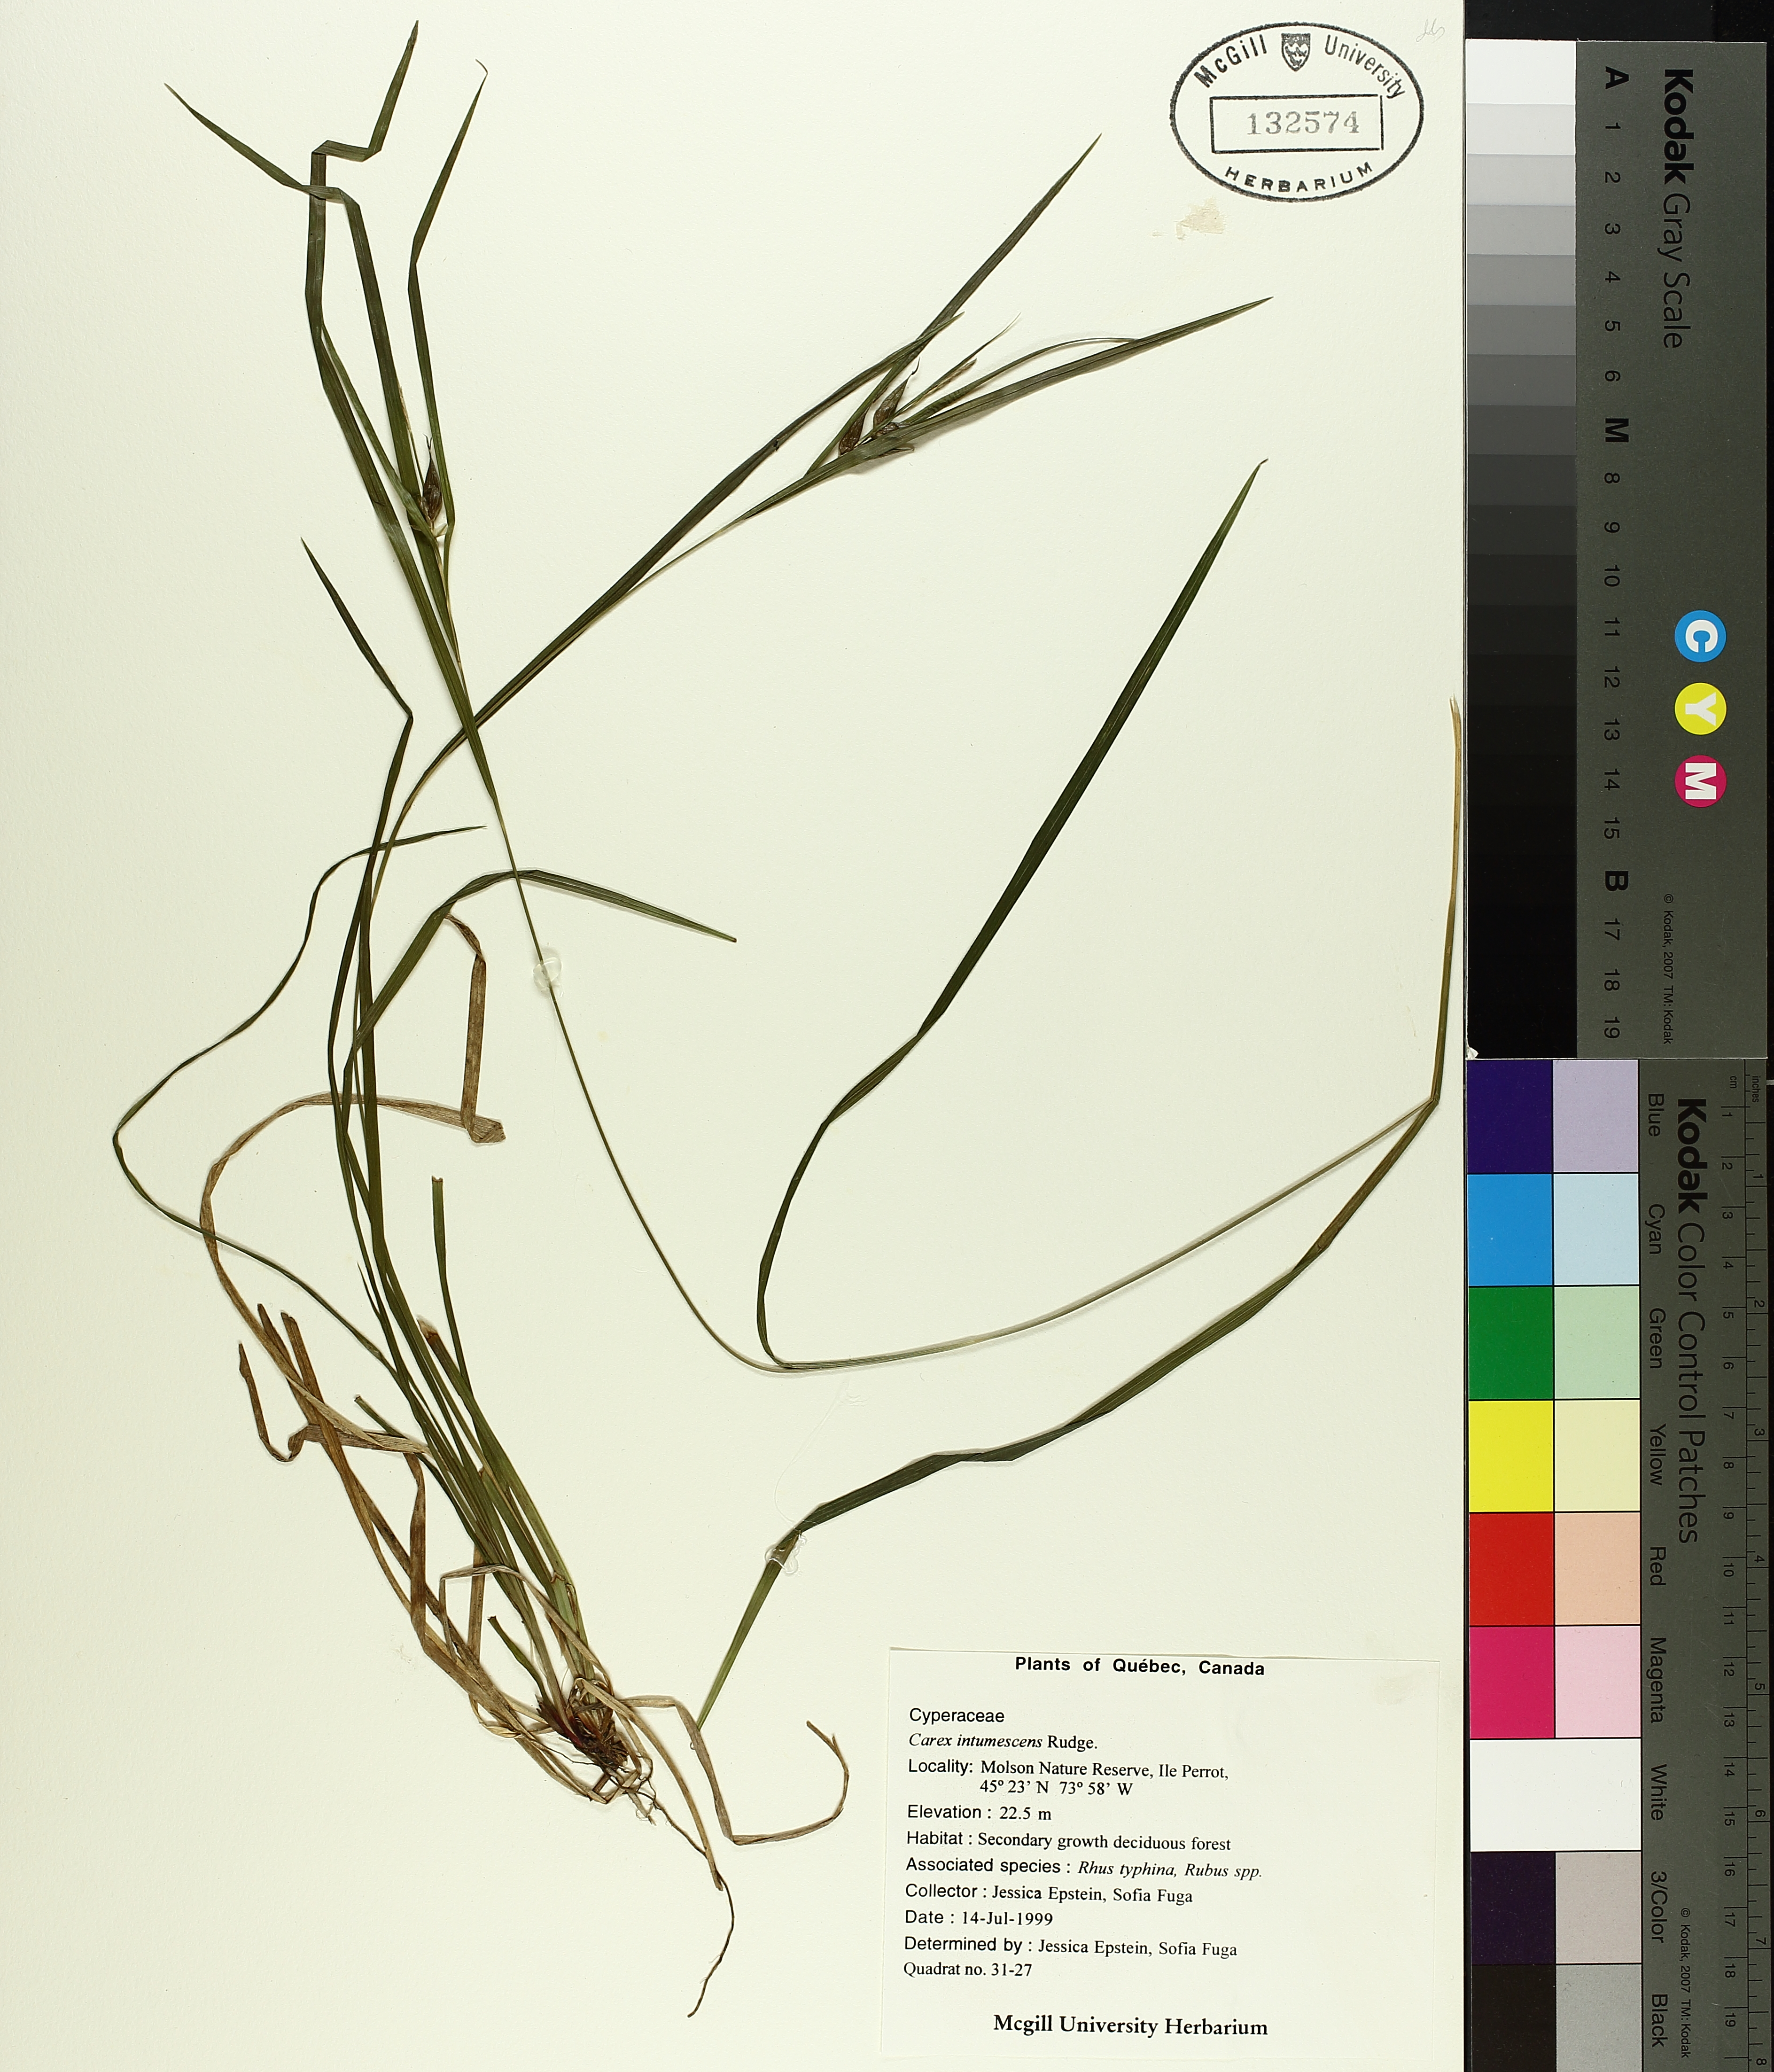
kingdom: Plantae
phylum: Tracheophyta
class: Liliopsida
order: Poales
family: Cyperaceae
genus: Carex
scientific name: Carex intumescens
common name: Greater bladder sedge
